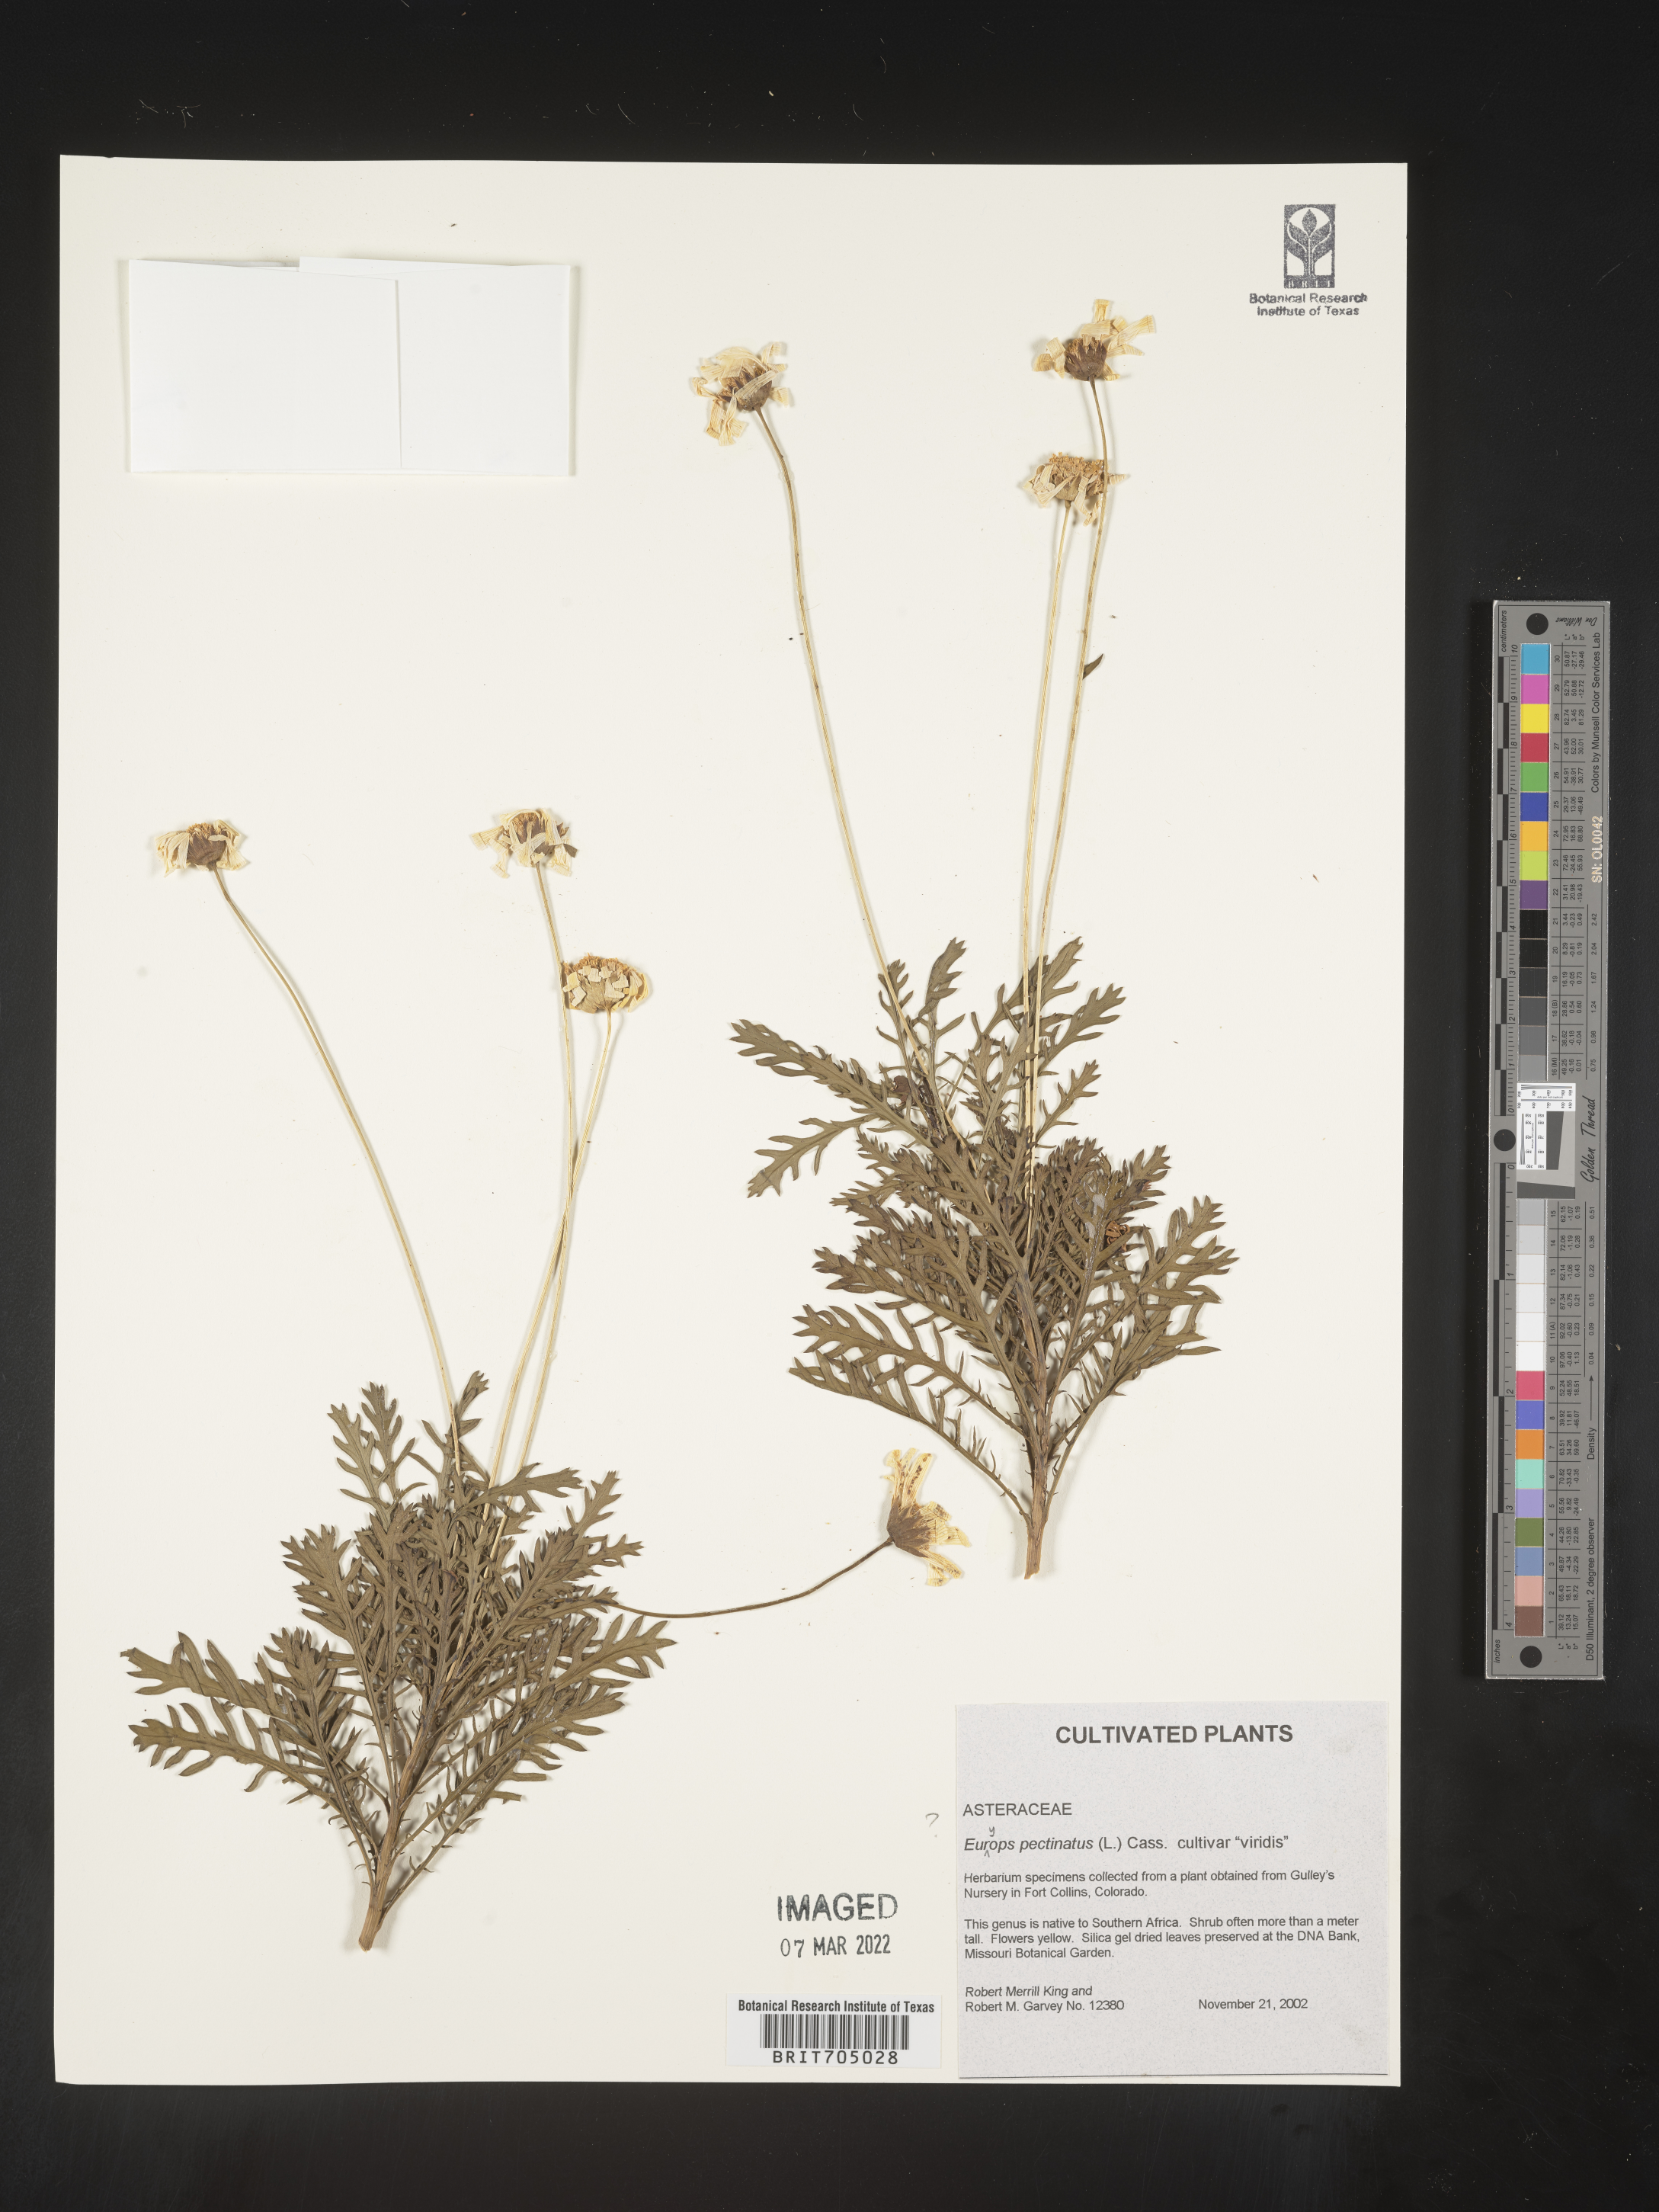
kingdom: Plantae
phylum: Tracheophyta
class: Magnoliopsida
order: Asterales
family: Asteraceae
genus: Euryops
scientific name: Euryops
